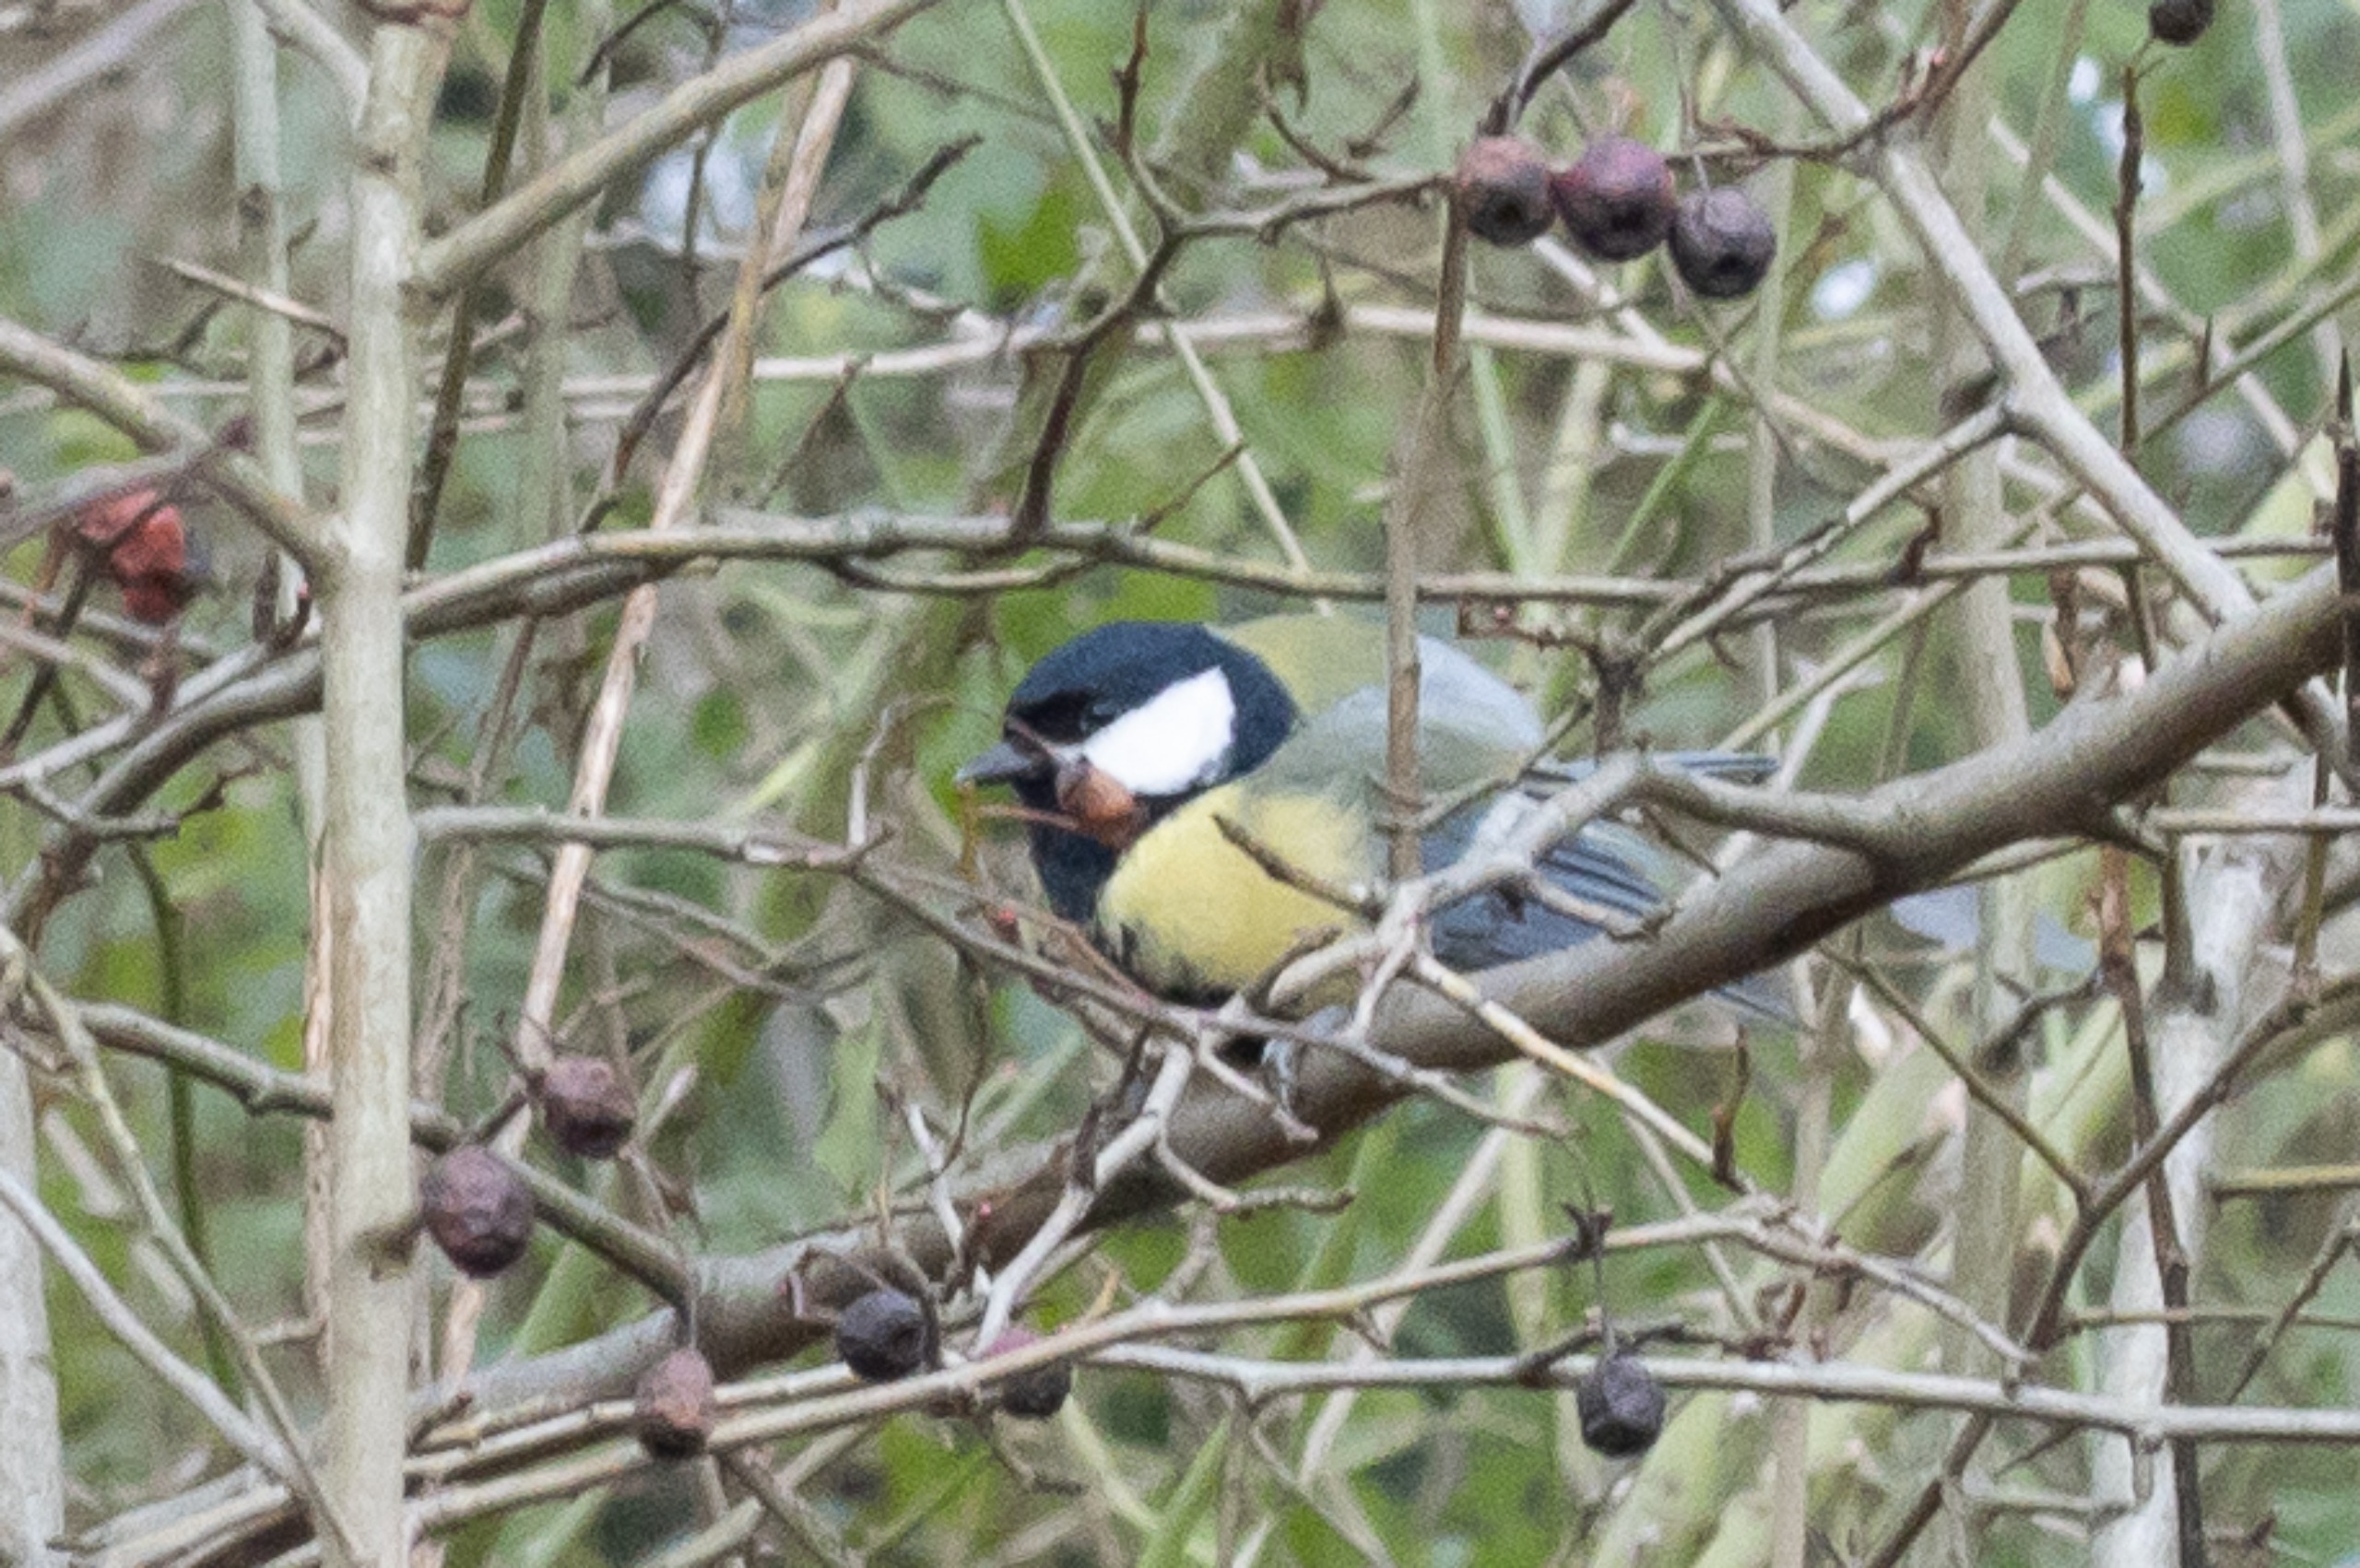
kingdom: Animalia
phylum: Chordata
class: Aves
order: Passeriformes
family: Paridae
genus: Parus
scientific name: Parus major
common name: Musvit
